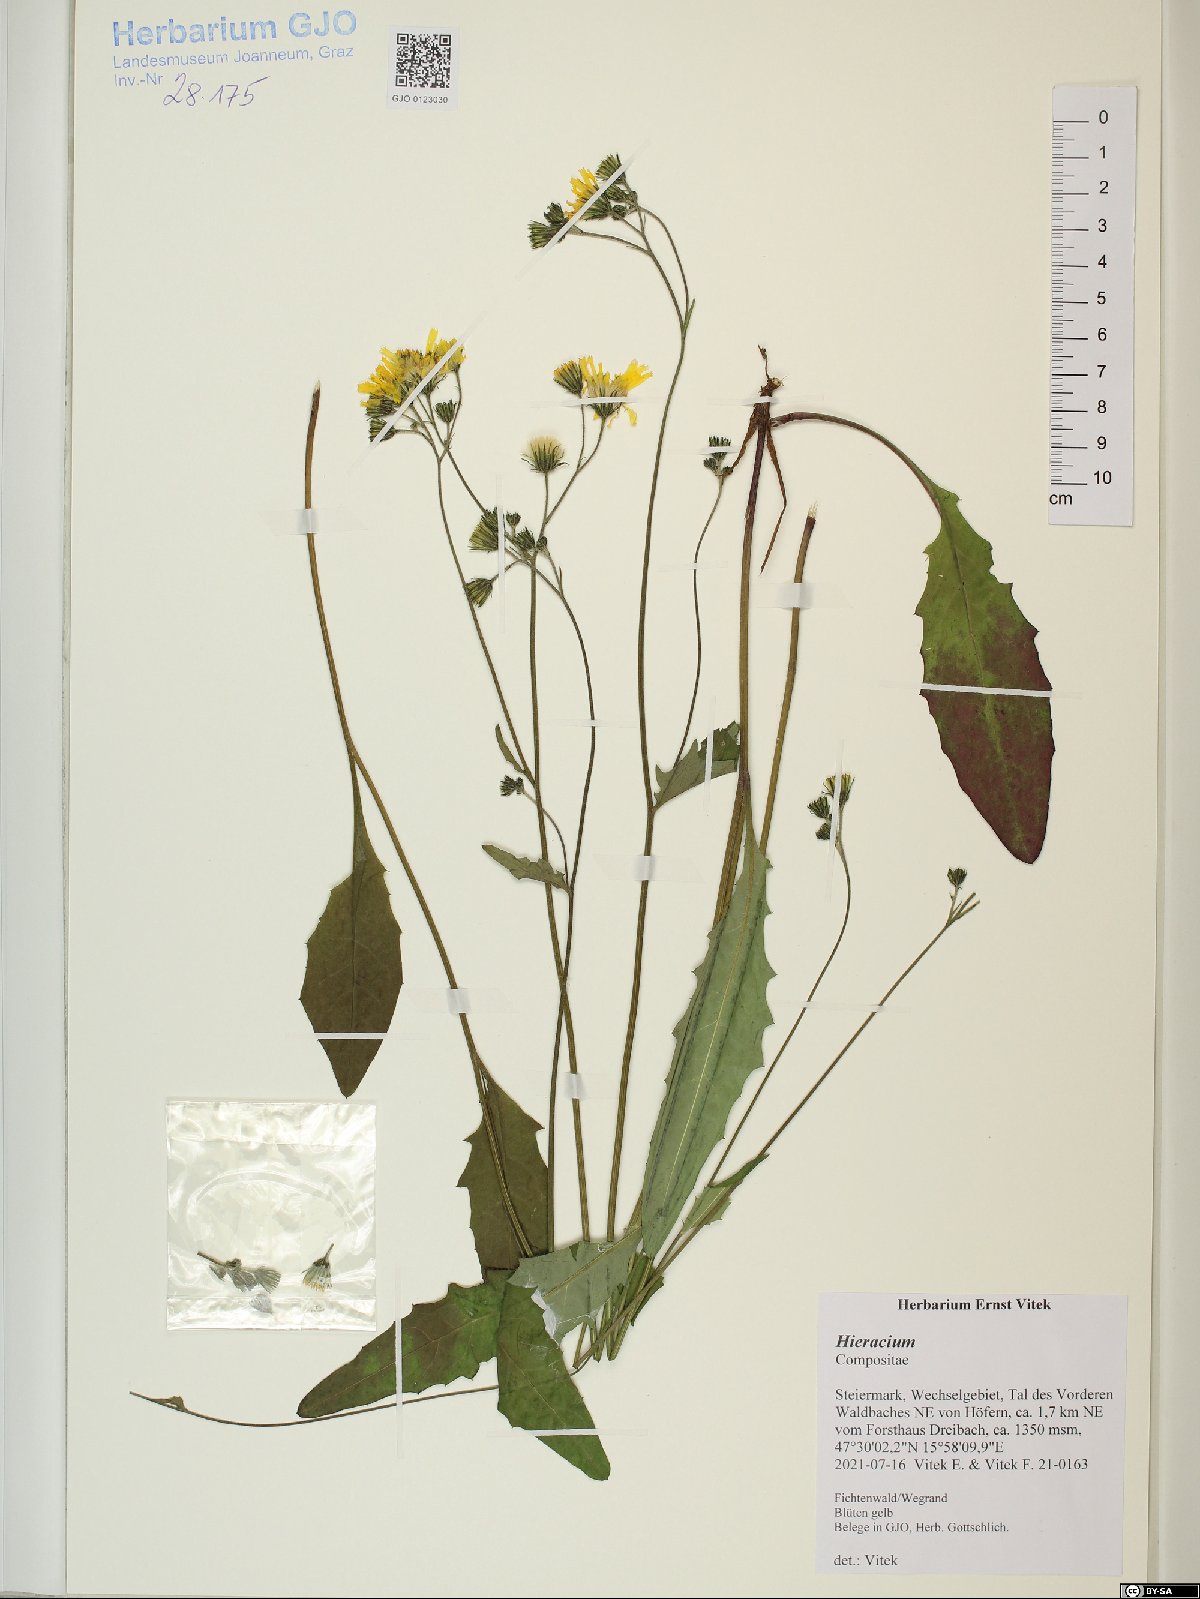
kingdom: Plantae
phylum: Tracheophyta
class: Magnoliopsida
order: Asterales
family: Asteraceae
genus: Hieracium
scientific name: Hieracium
